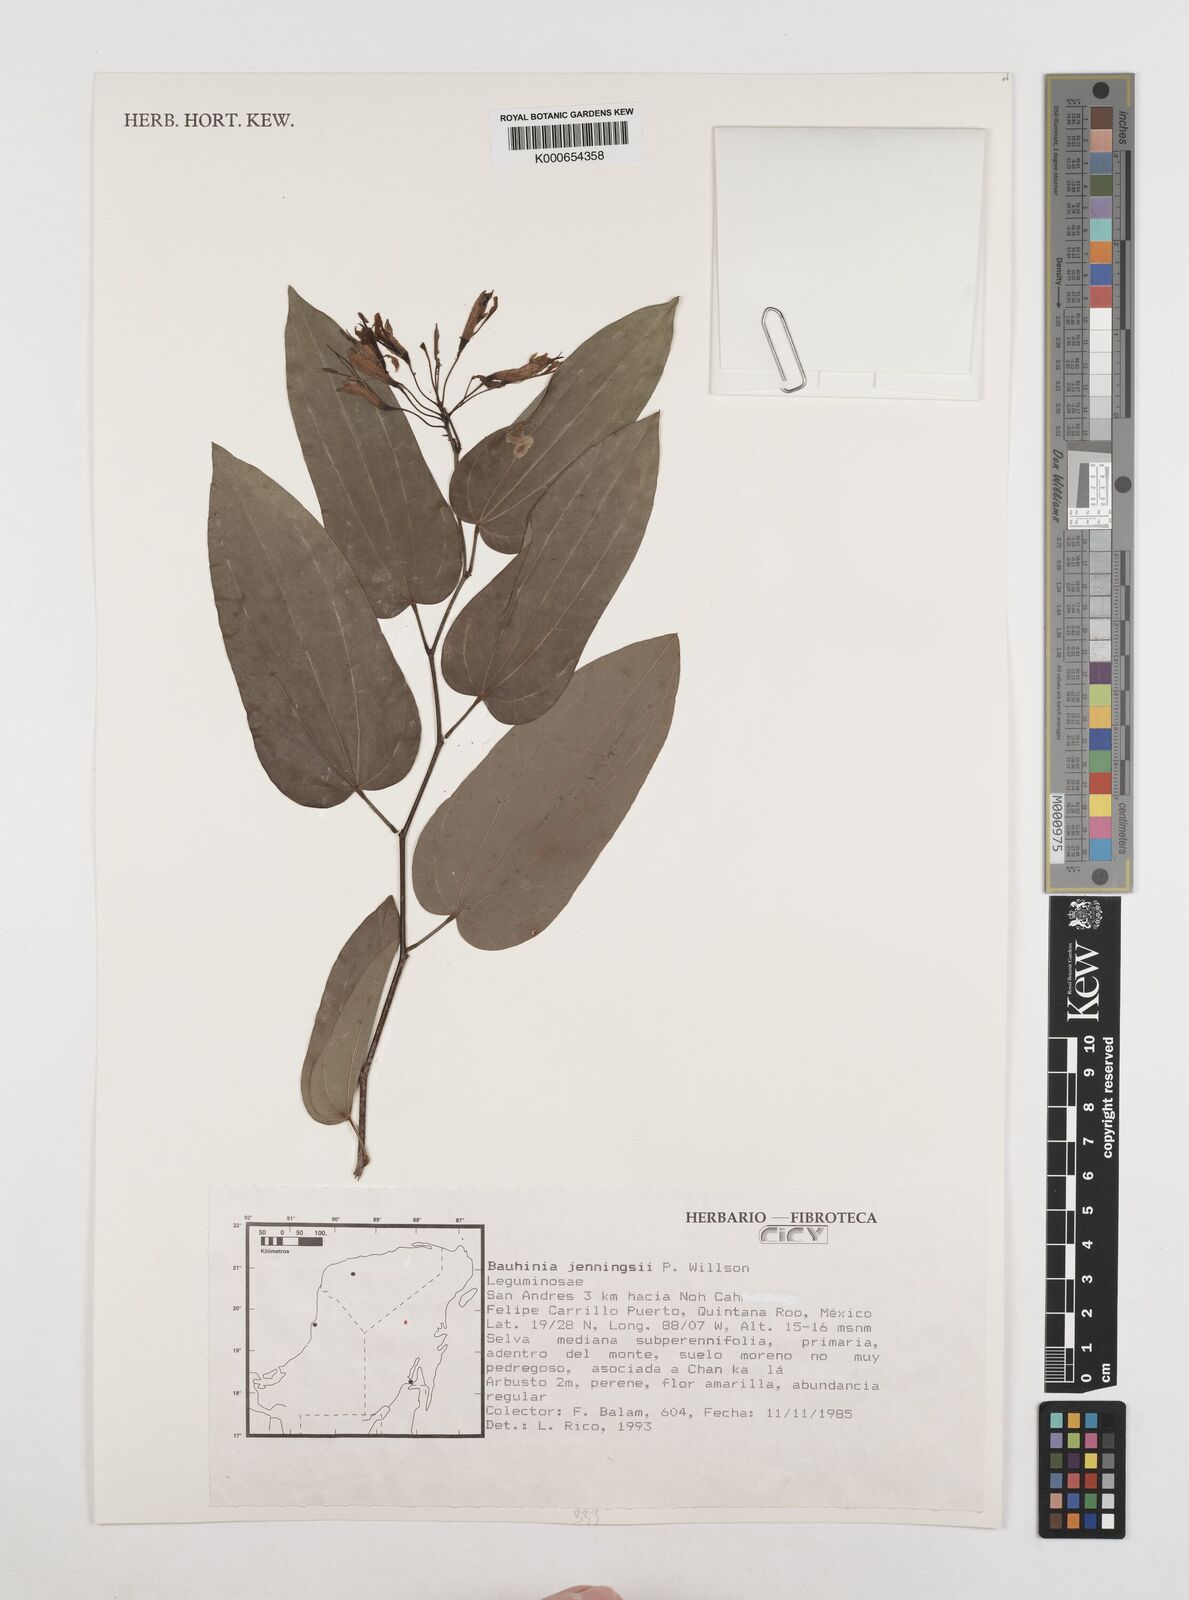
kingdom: Plantae
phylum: Tracheophyta
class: Magnoliopsida
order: Fabales
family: Fabaceae
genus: Bauhinia
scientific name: Bauhinia jenningsii
